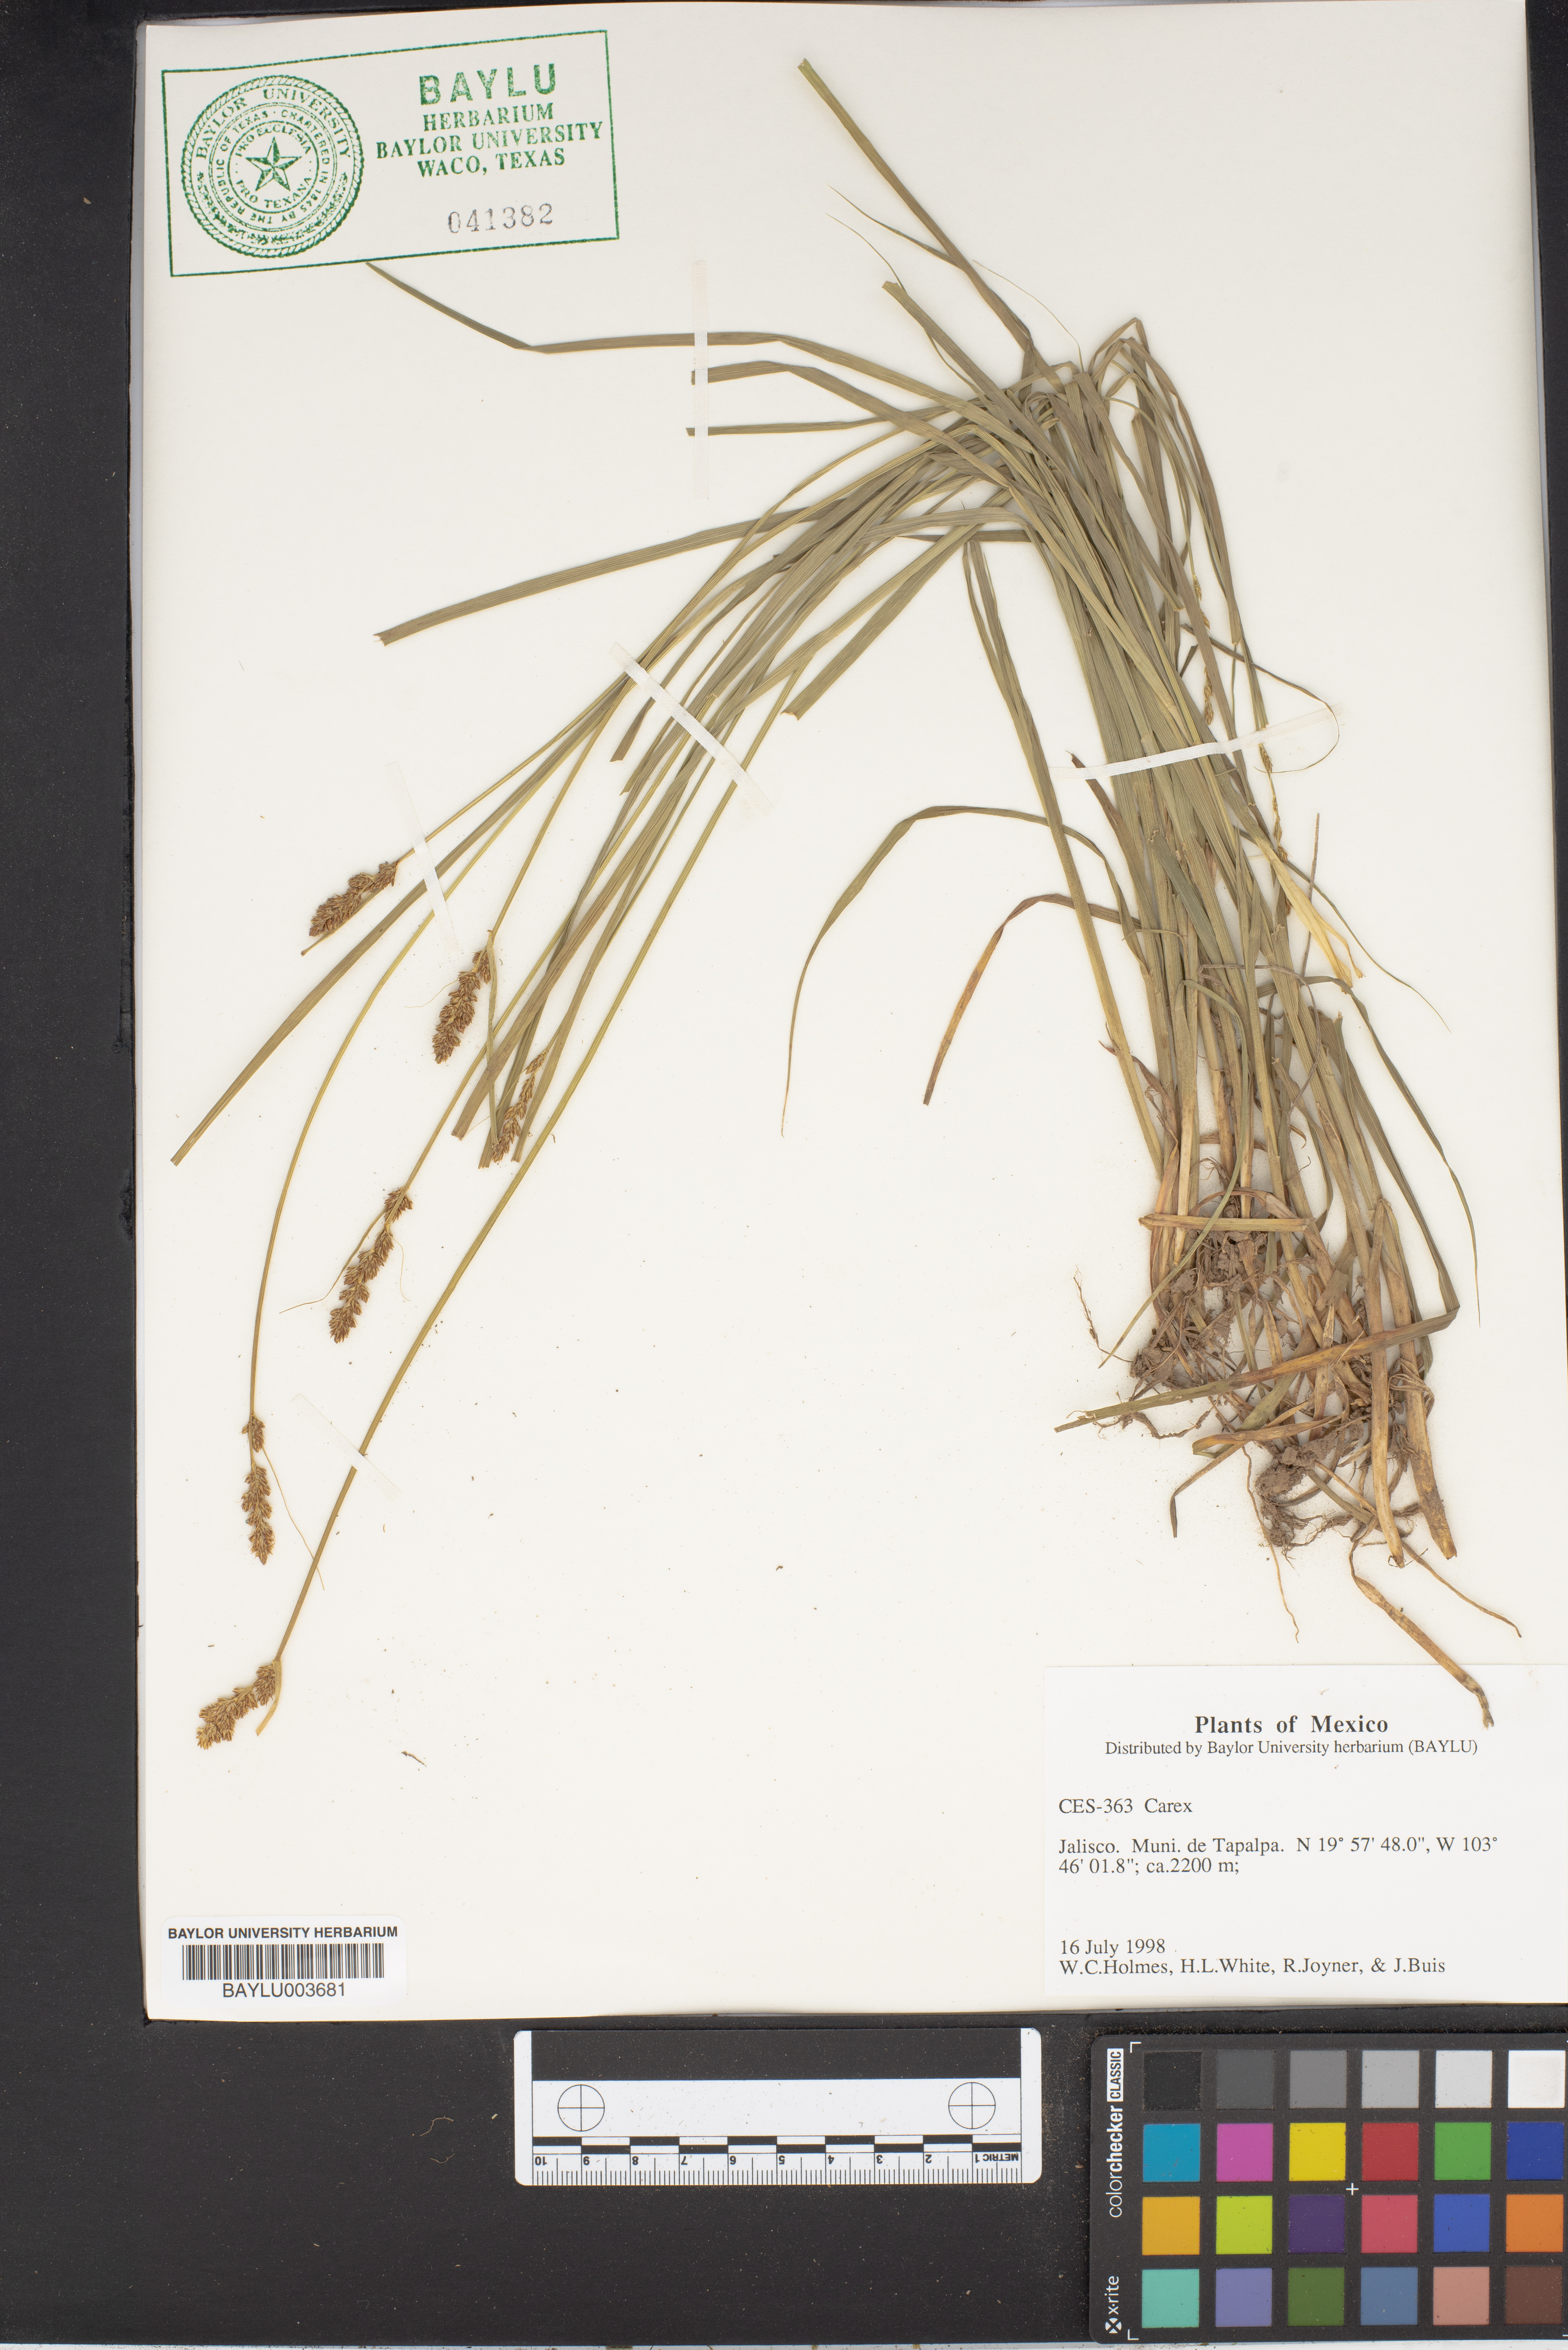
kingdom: Plantae
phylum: Tracheophyta
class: Liliopsida
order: Poales
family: Cyperaceae
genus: Carex
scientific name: Carex
